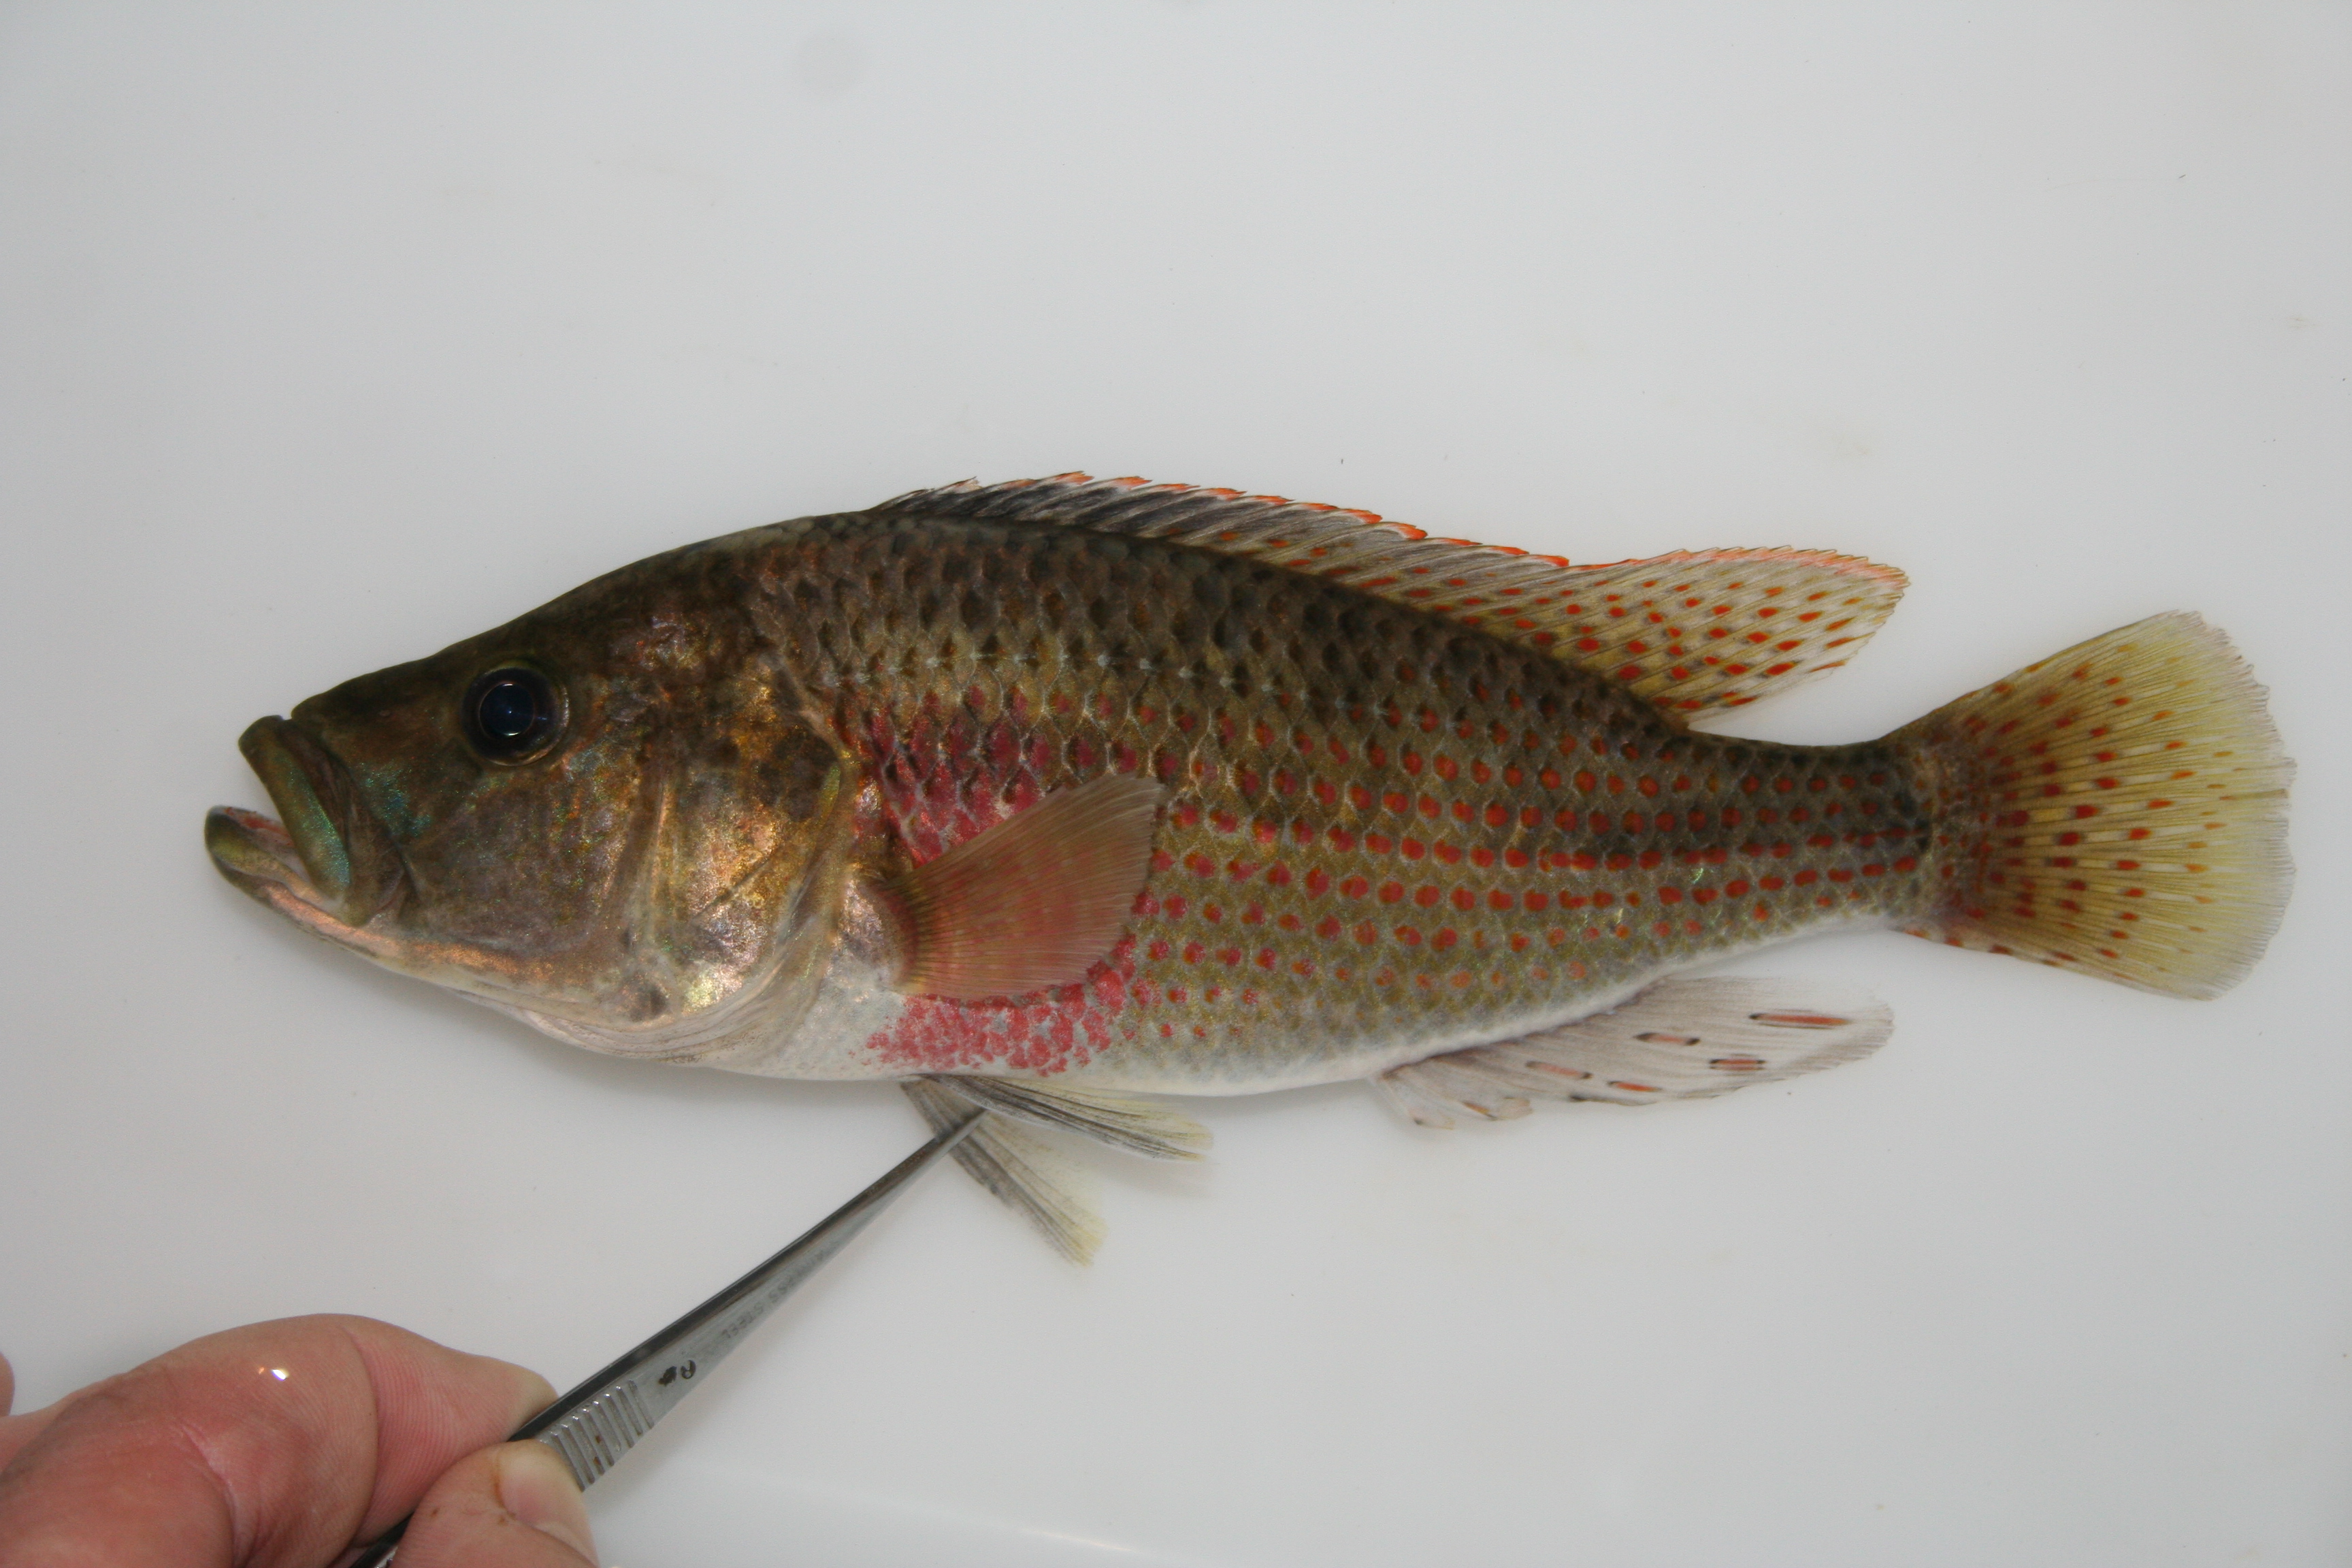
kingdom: Animalia
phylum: Chordata
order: Perciformes
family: Cichlidae
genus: Serranochromis
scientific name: Serranochromis
